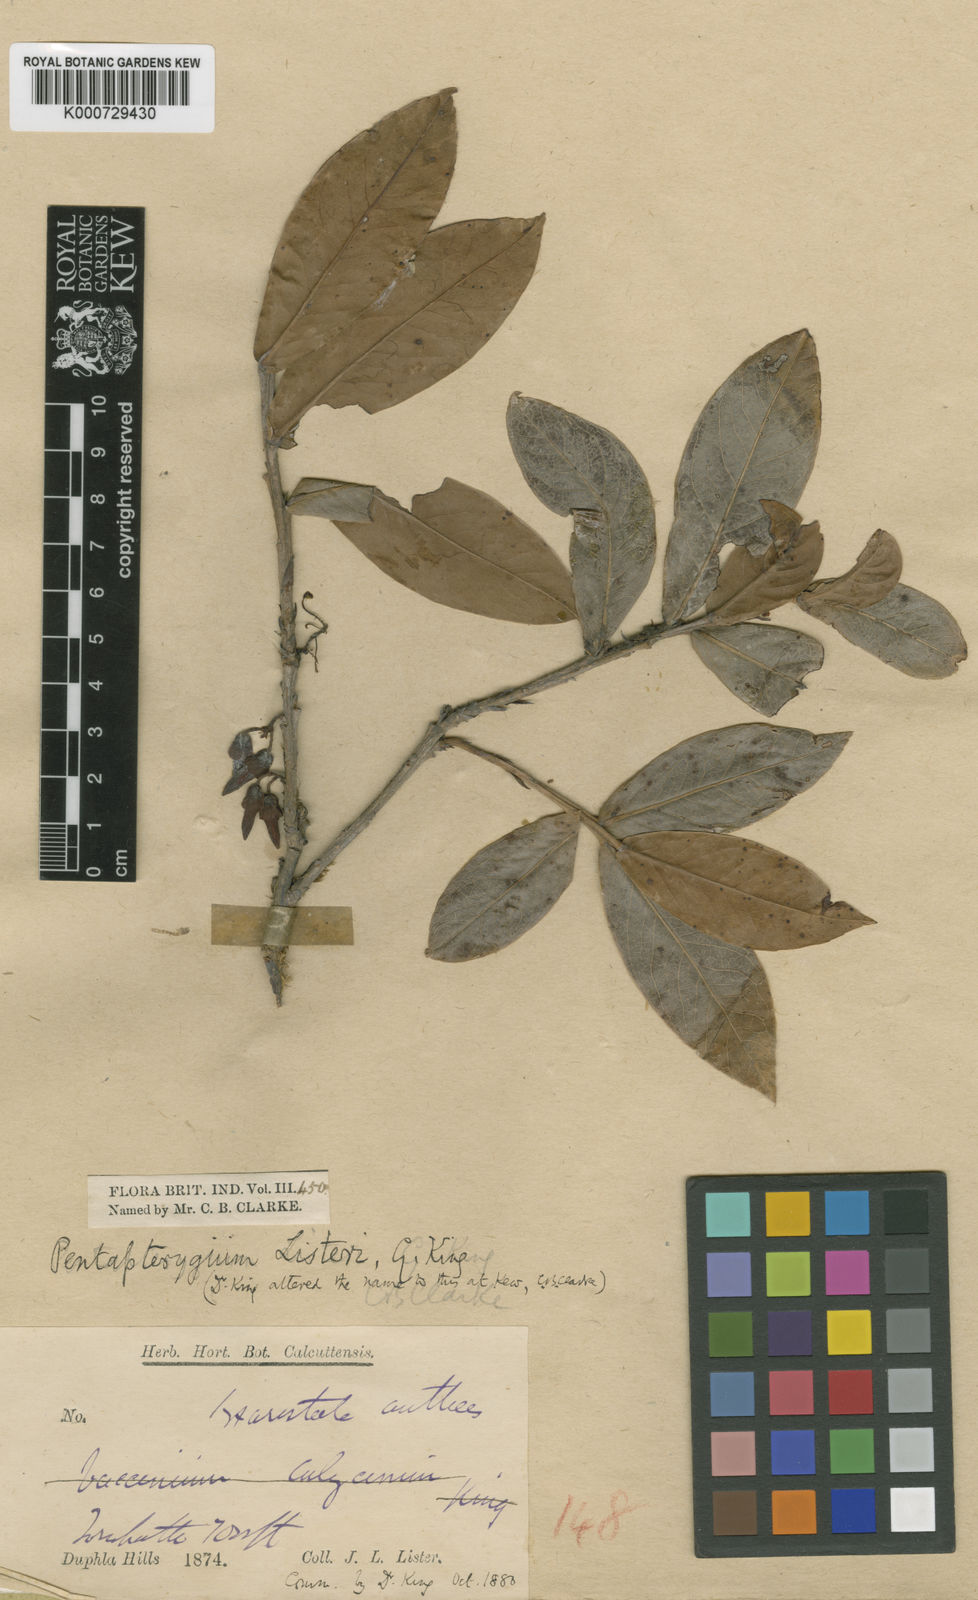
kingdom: Plantae
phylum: Tracheophyta
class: Magnoliopsida
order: Ericales
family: Ericaceae
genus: Agapetes
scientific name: Agapetes listeri
